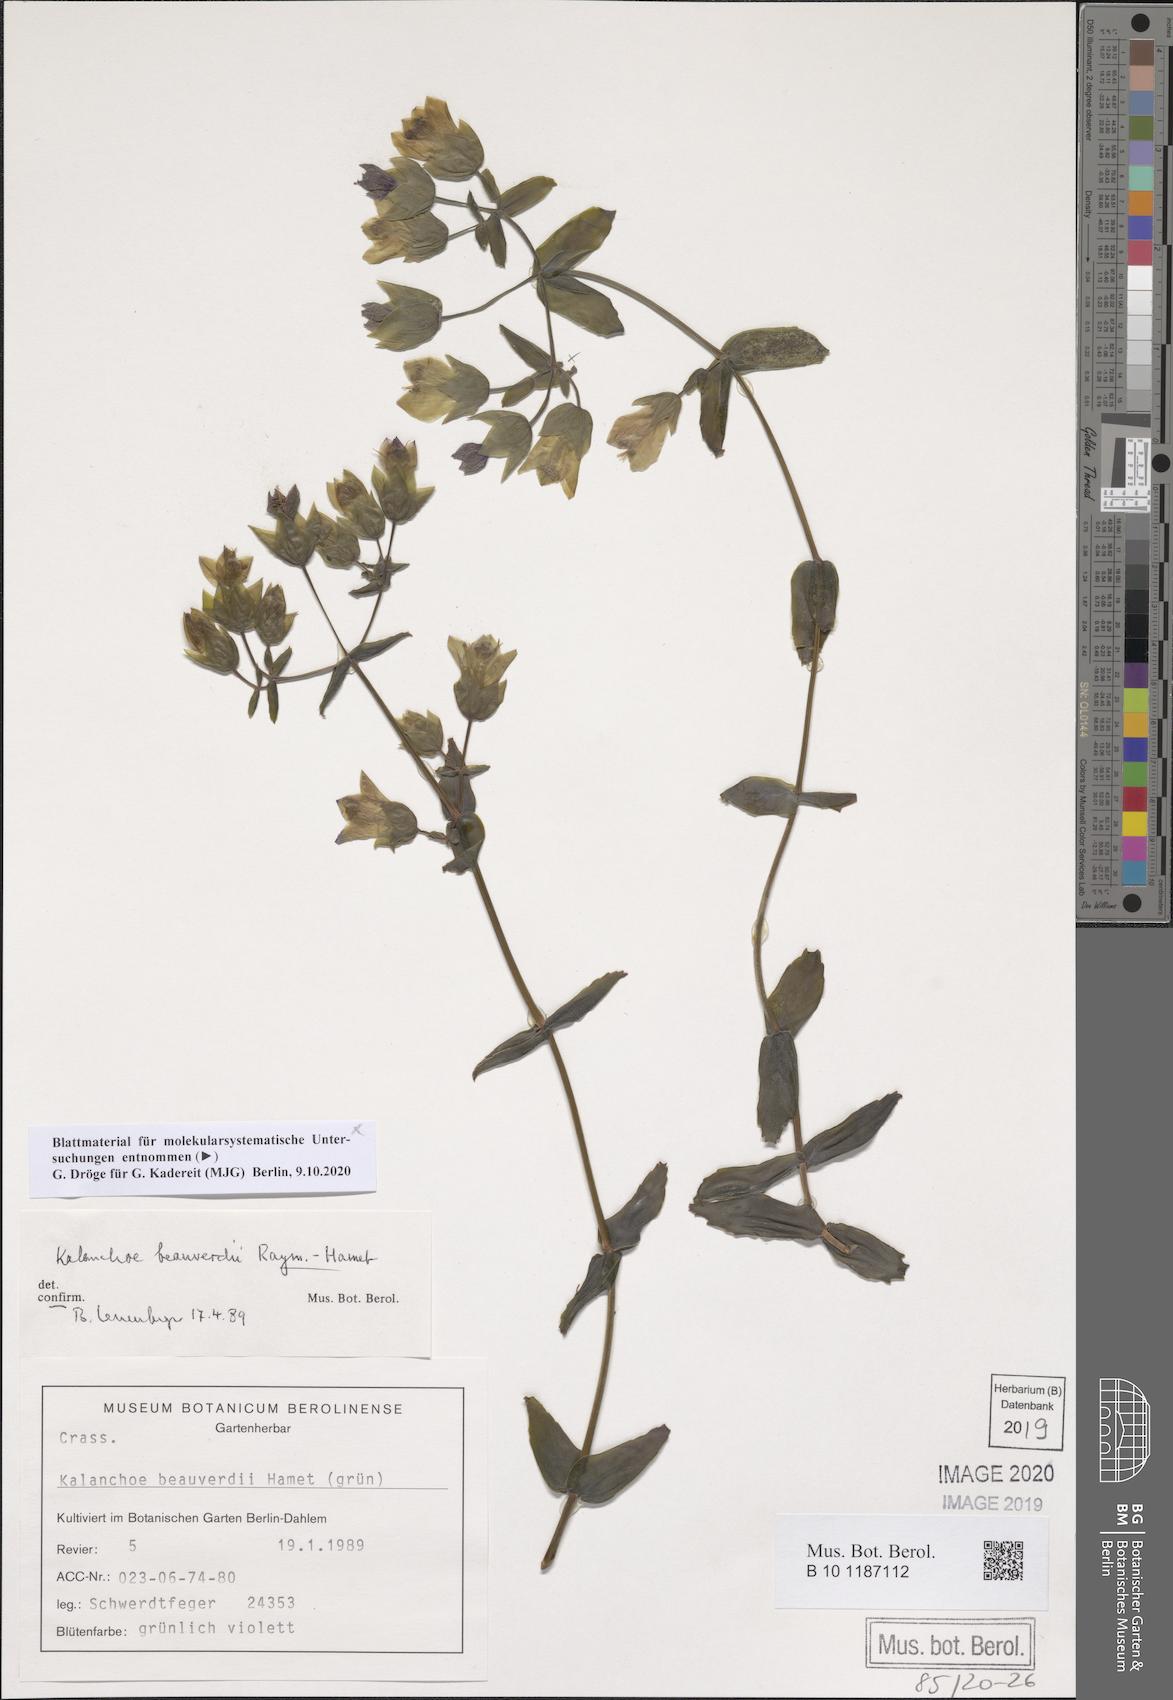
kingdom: Plantae
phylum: Tracheophyta
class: Magnoliopsida
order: Saxifragales
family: Crassulaceae
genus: Kalanchoe
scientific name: Kalanchoe beauverdii
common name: Beauverd's widow's-thrill
